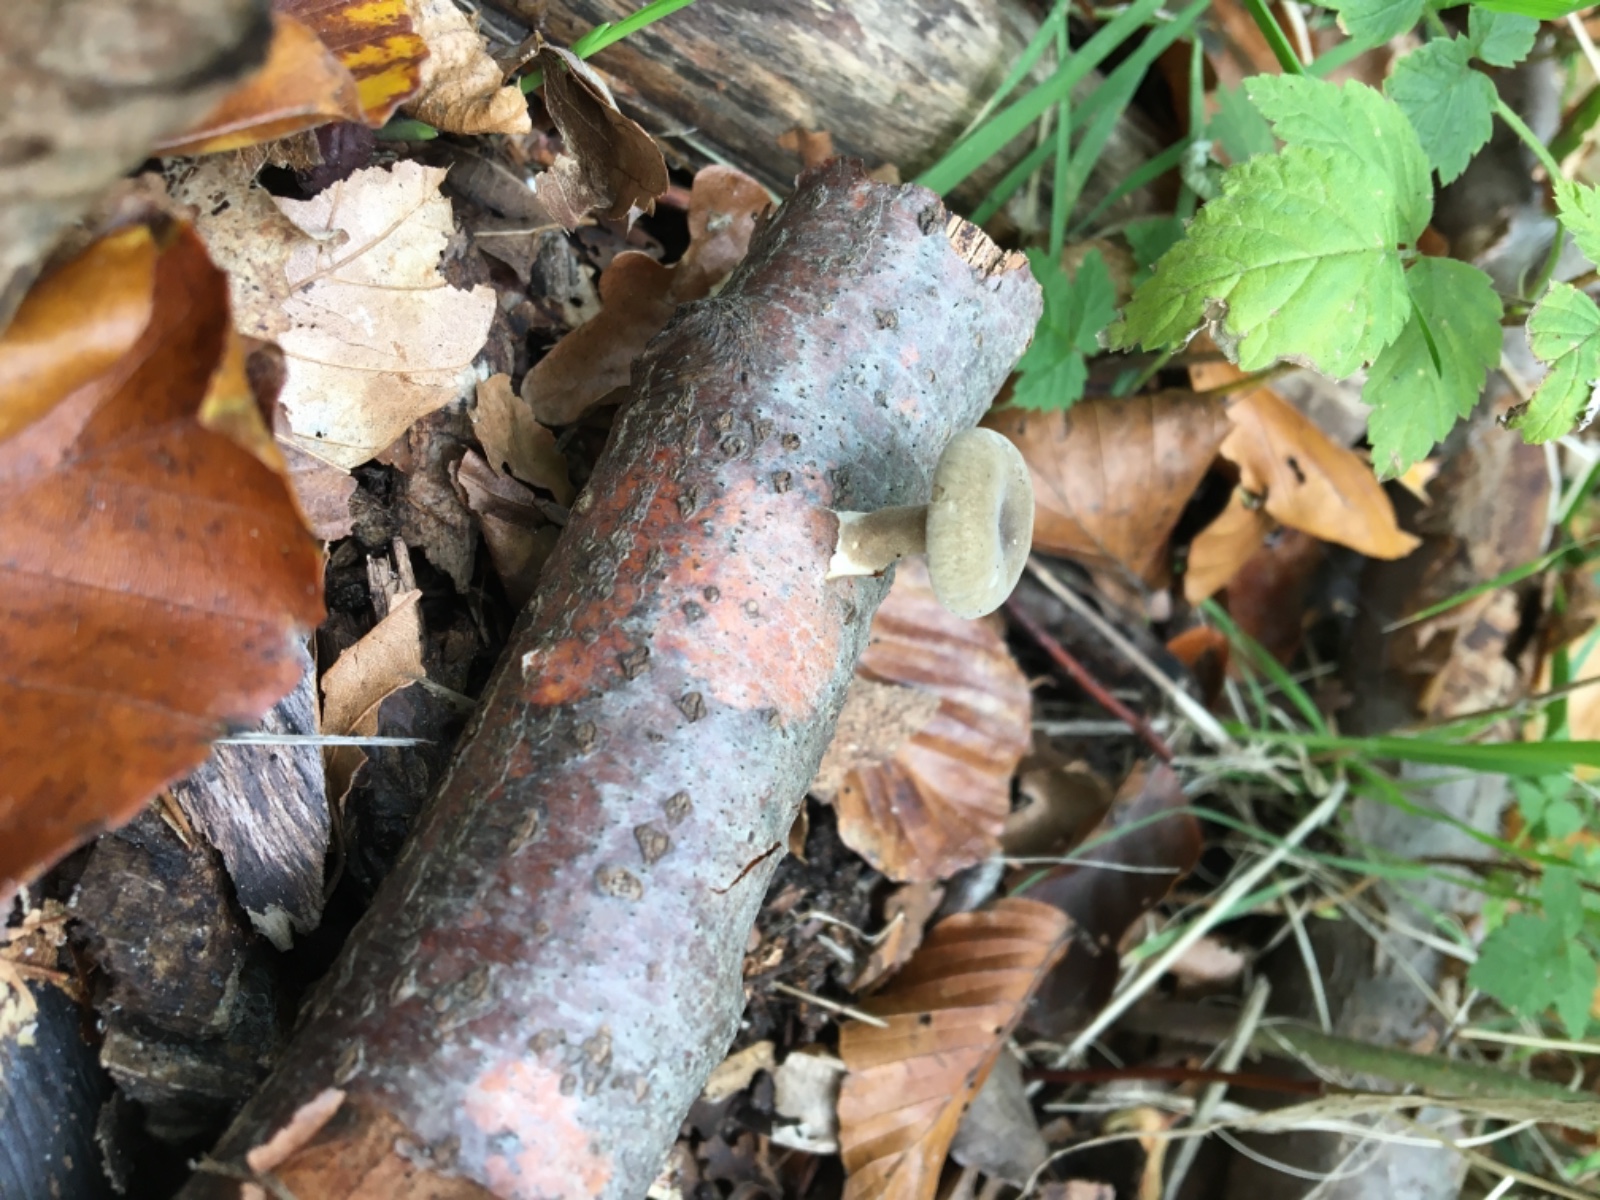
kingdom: Fungi
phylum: Basidiomycota
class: Agaricomycetes
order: Polyporales
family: Polyporaceae
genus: Lentinus
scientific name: Lentinus brumalis
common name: vinter-stilkporesvamp
